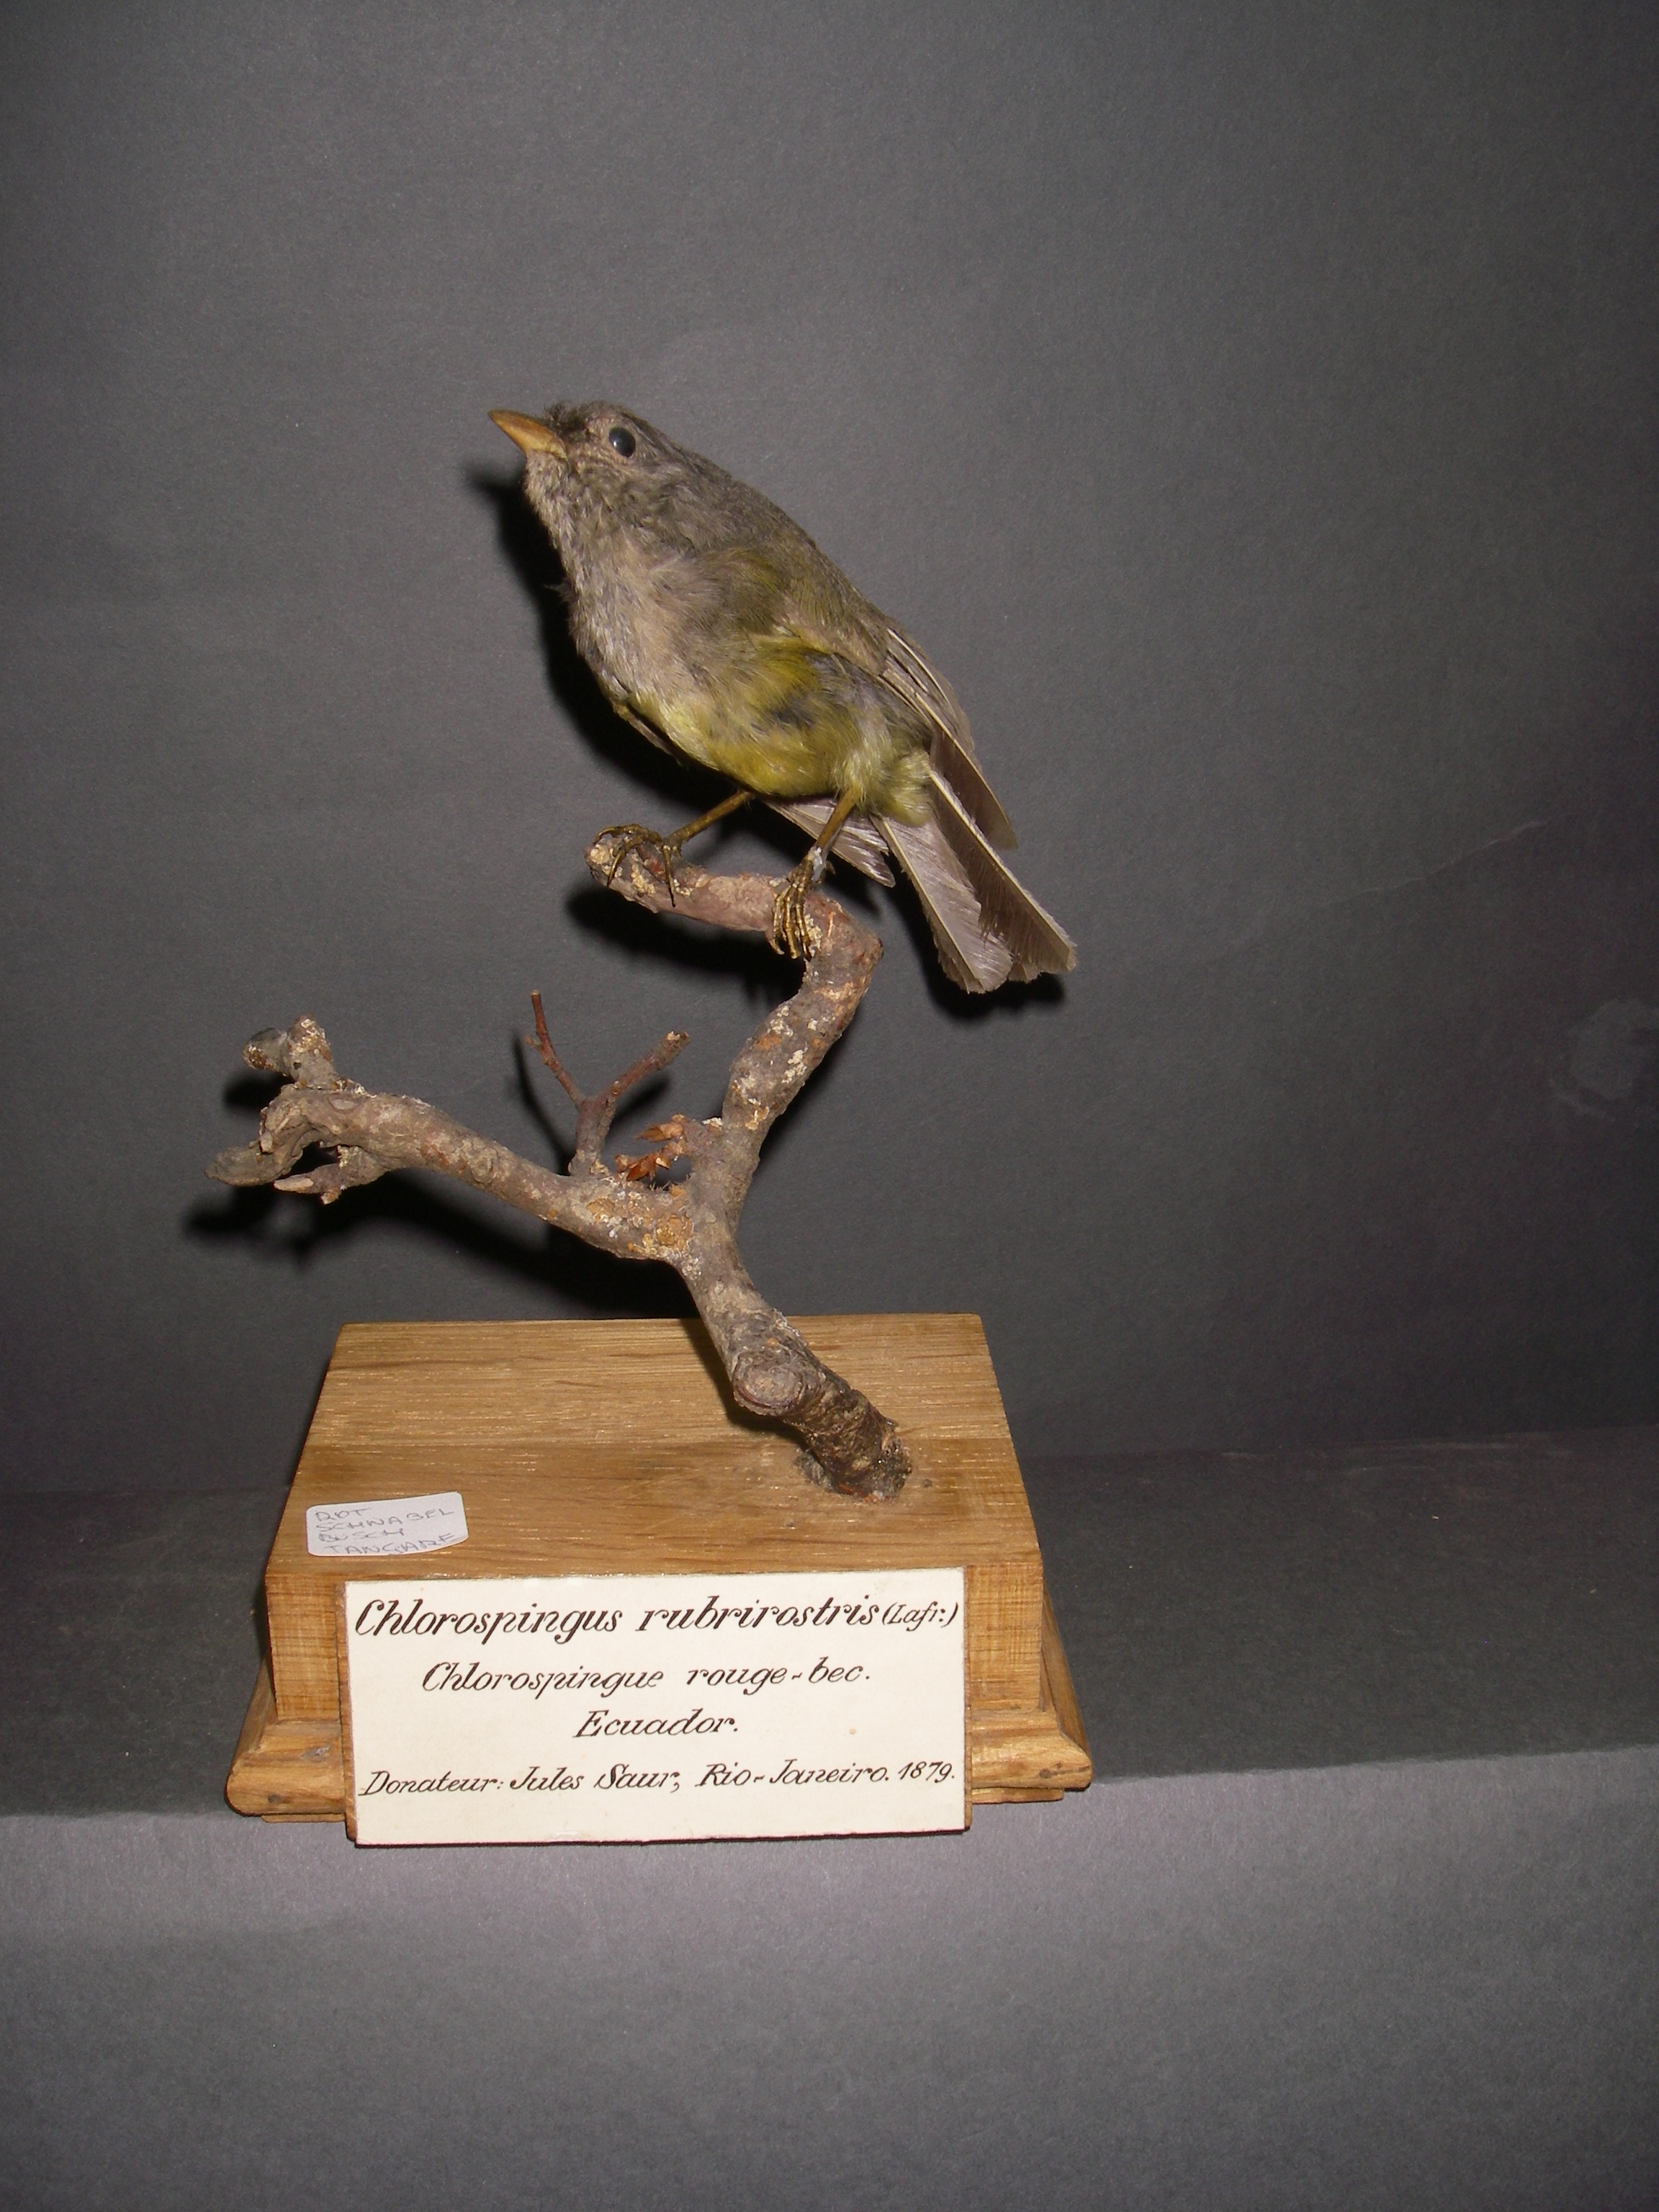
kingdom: Animalia
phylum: Chordata
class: Aves
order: Passeriformes
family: Thraupidae
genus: Cnemoscopus
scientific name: Cnemoscopus rubrirostris
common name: Grey-hooded bush tanager
